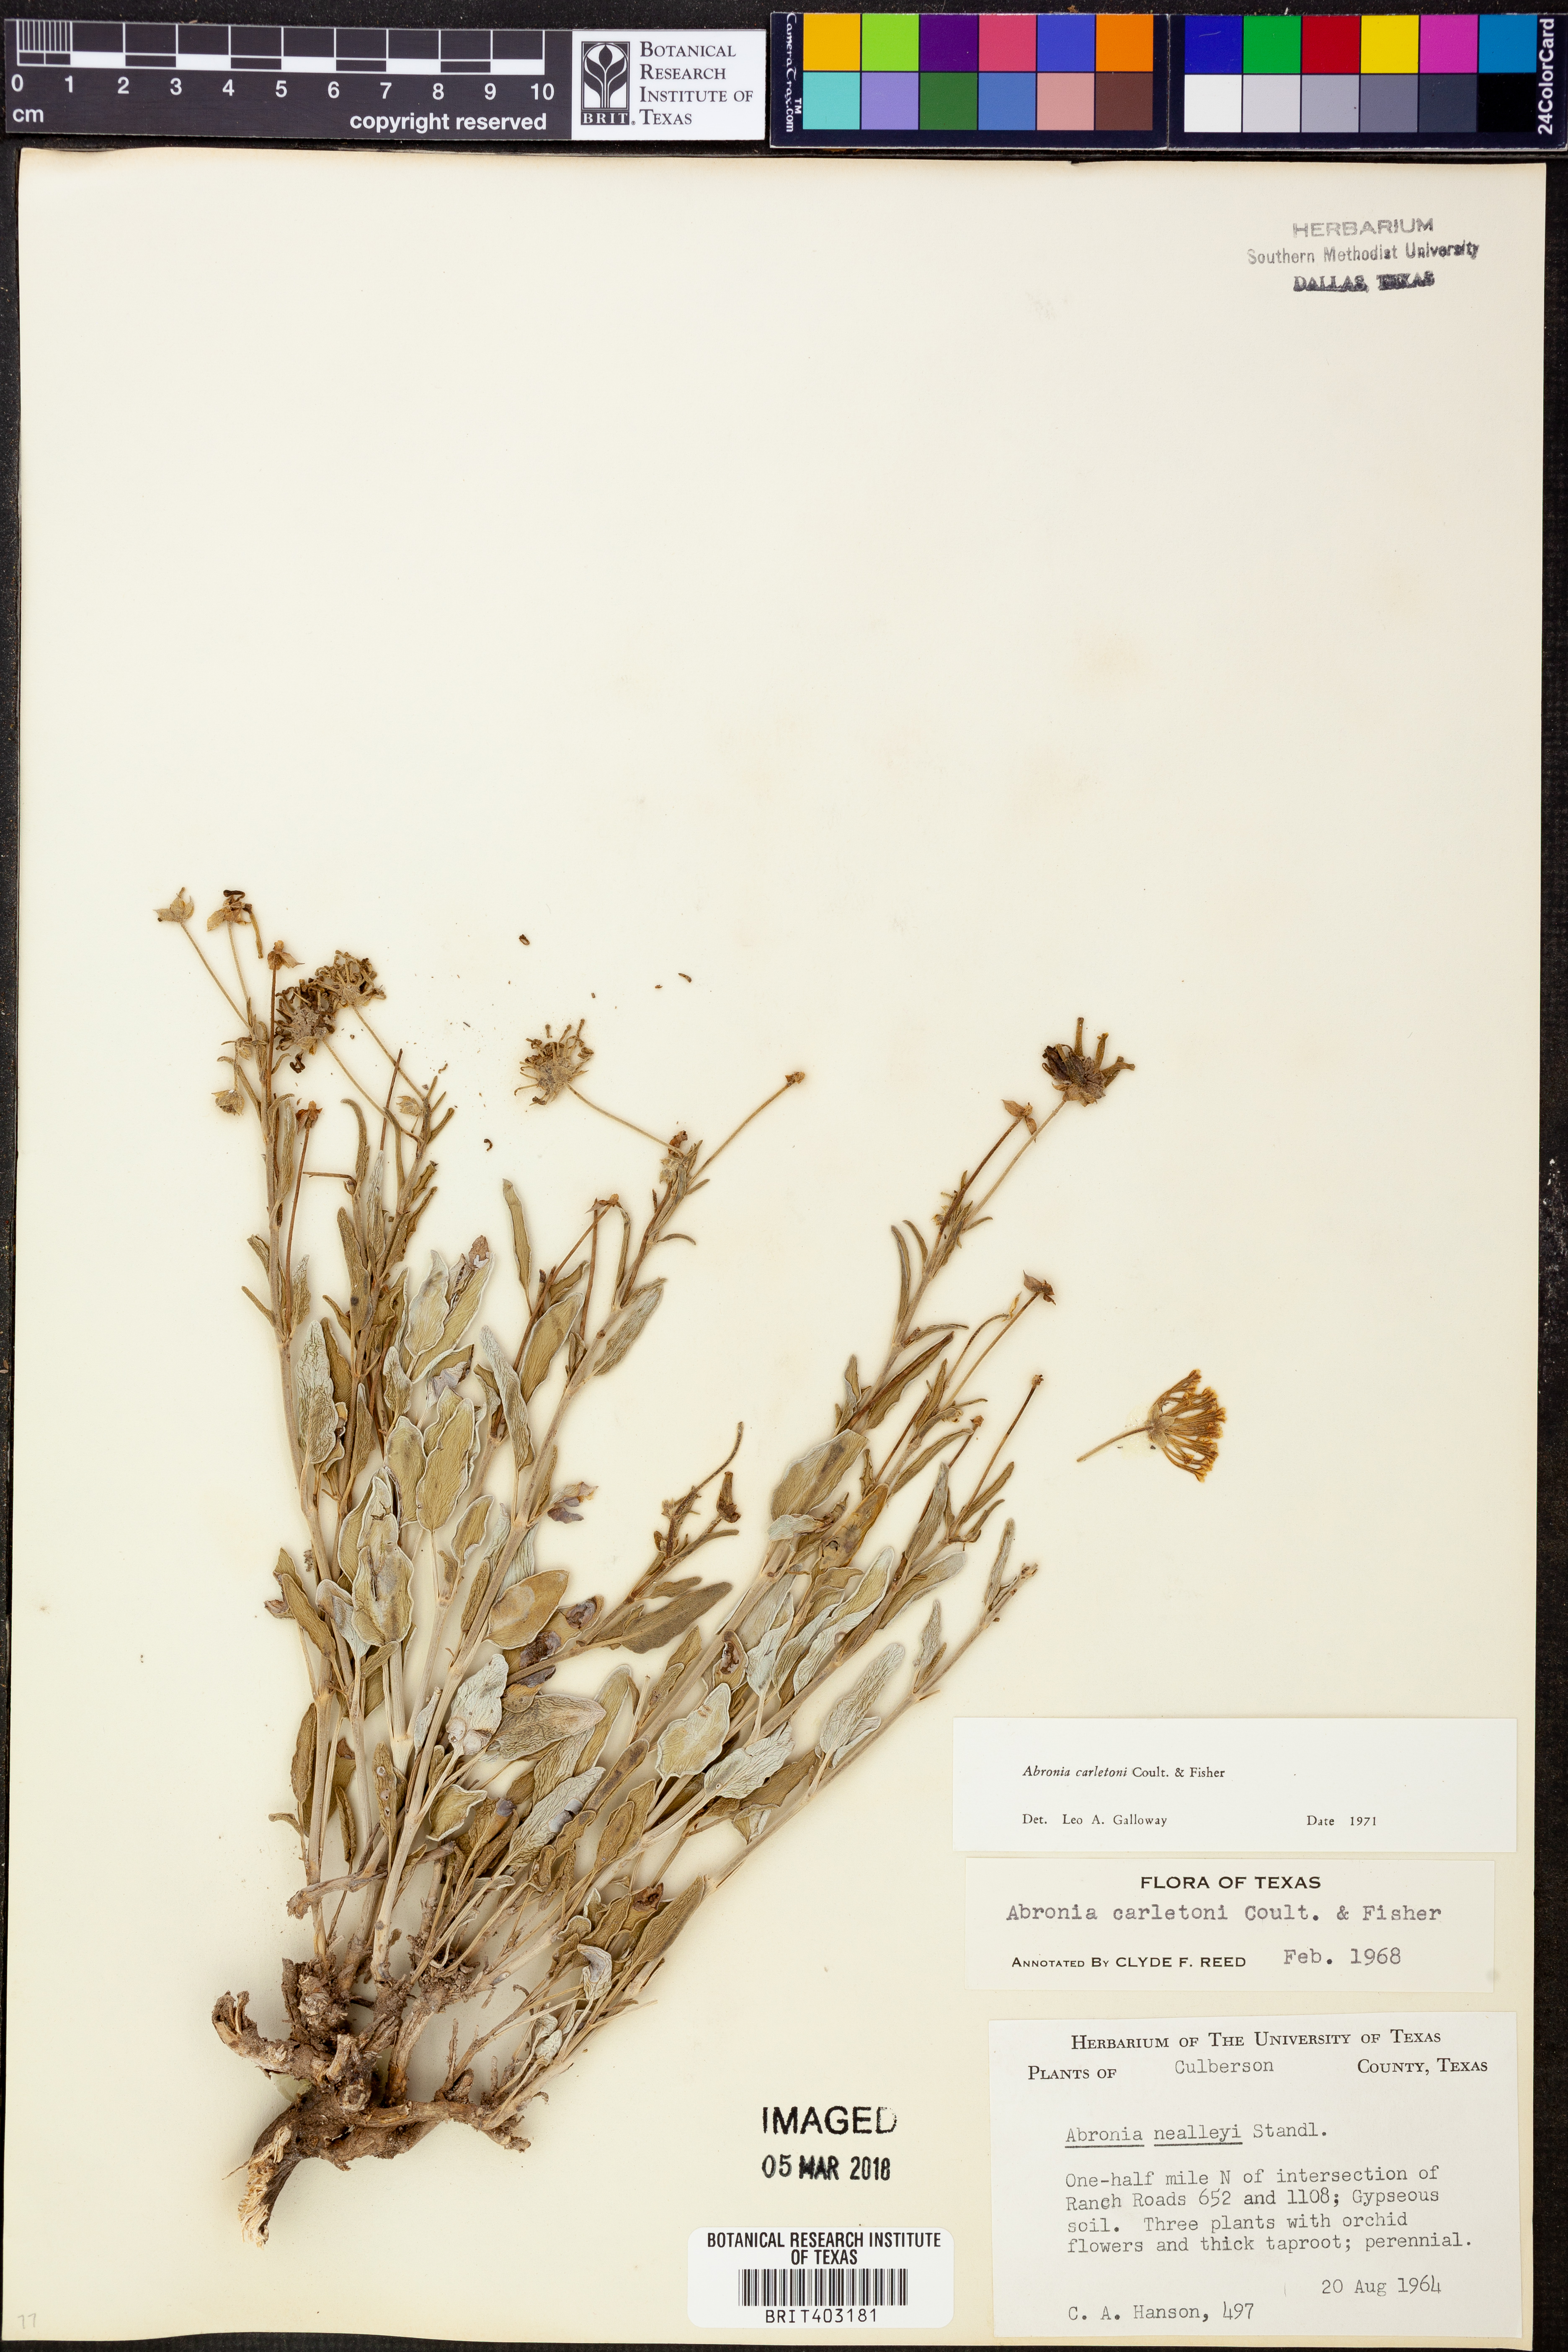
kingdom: Plantae
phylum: Tracheophyta
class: Magnoliopsida
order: Caryophyllales
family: Nyctaginaceae
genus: Abronia
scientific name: Abronia carletonii
